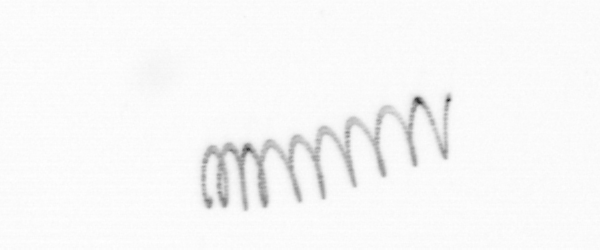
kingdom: Chromista
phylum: Ochrophyta
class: Bacillariophyceae
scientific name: Bacillariophyceae
